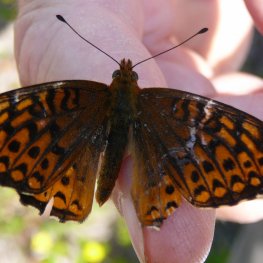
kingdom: Animalia
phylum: Arthropoda
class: Insecta
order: Lepidoptera
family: Nymphalidae
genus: Speyeria
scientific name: Speyeria atlantis
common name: Atlantis Fritillary
